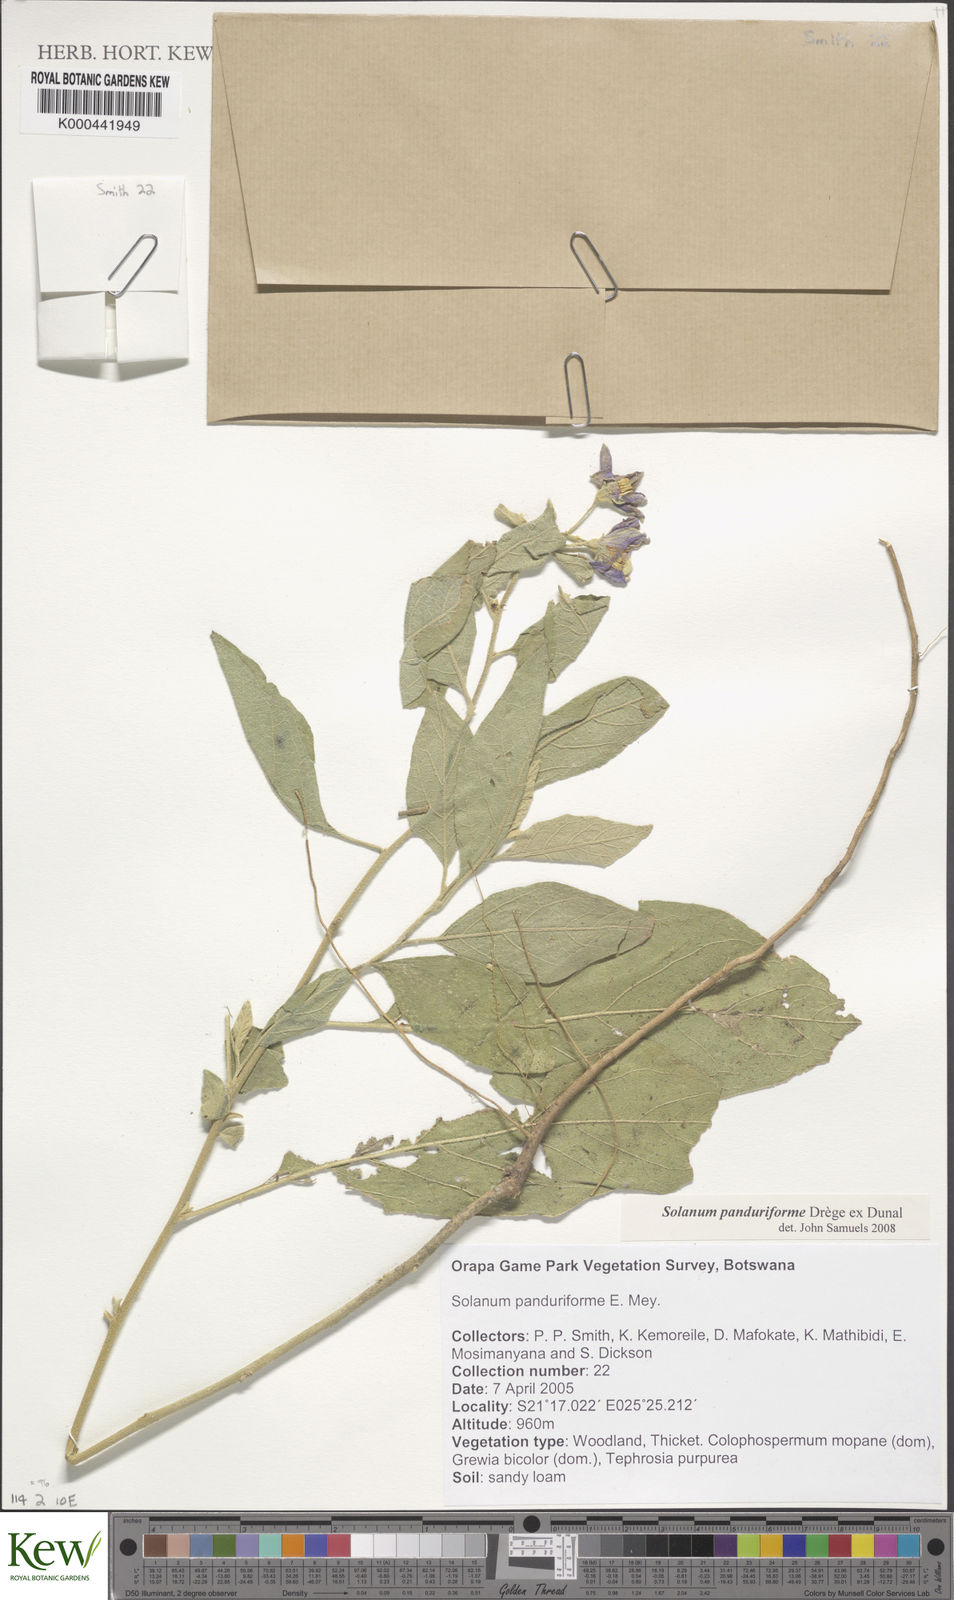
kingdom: Plantae
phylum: Tracheophyta
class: Magnoliopsida
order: Solanales
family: Solanaceae
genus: Solanum
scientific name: Solanum campylacanthum
